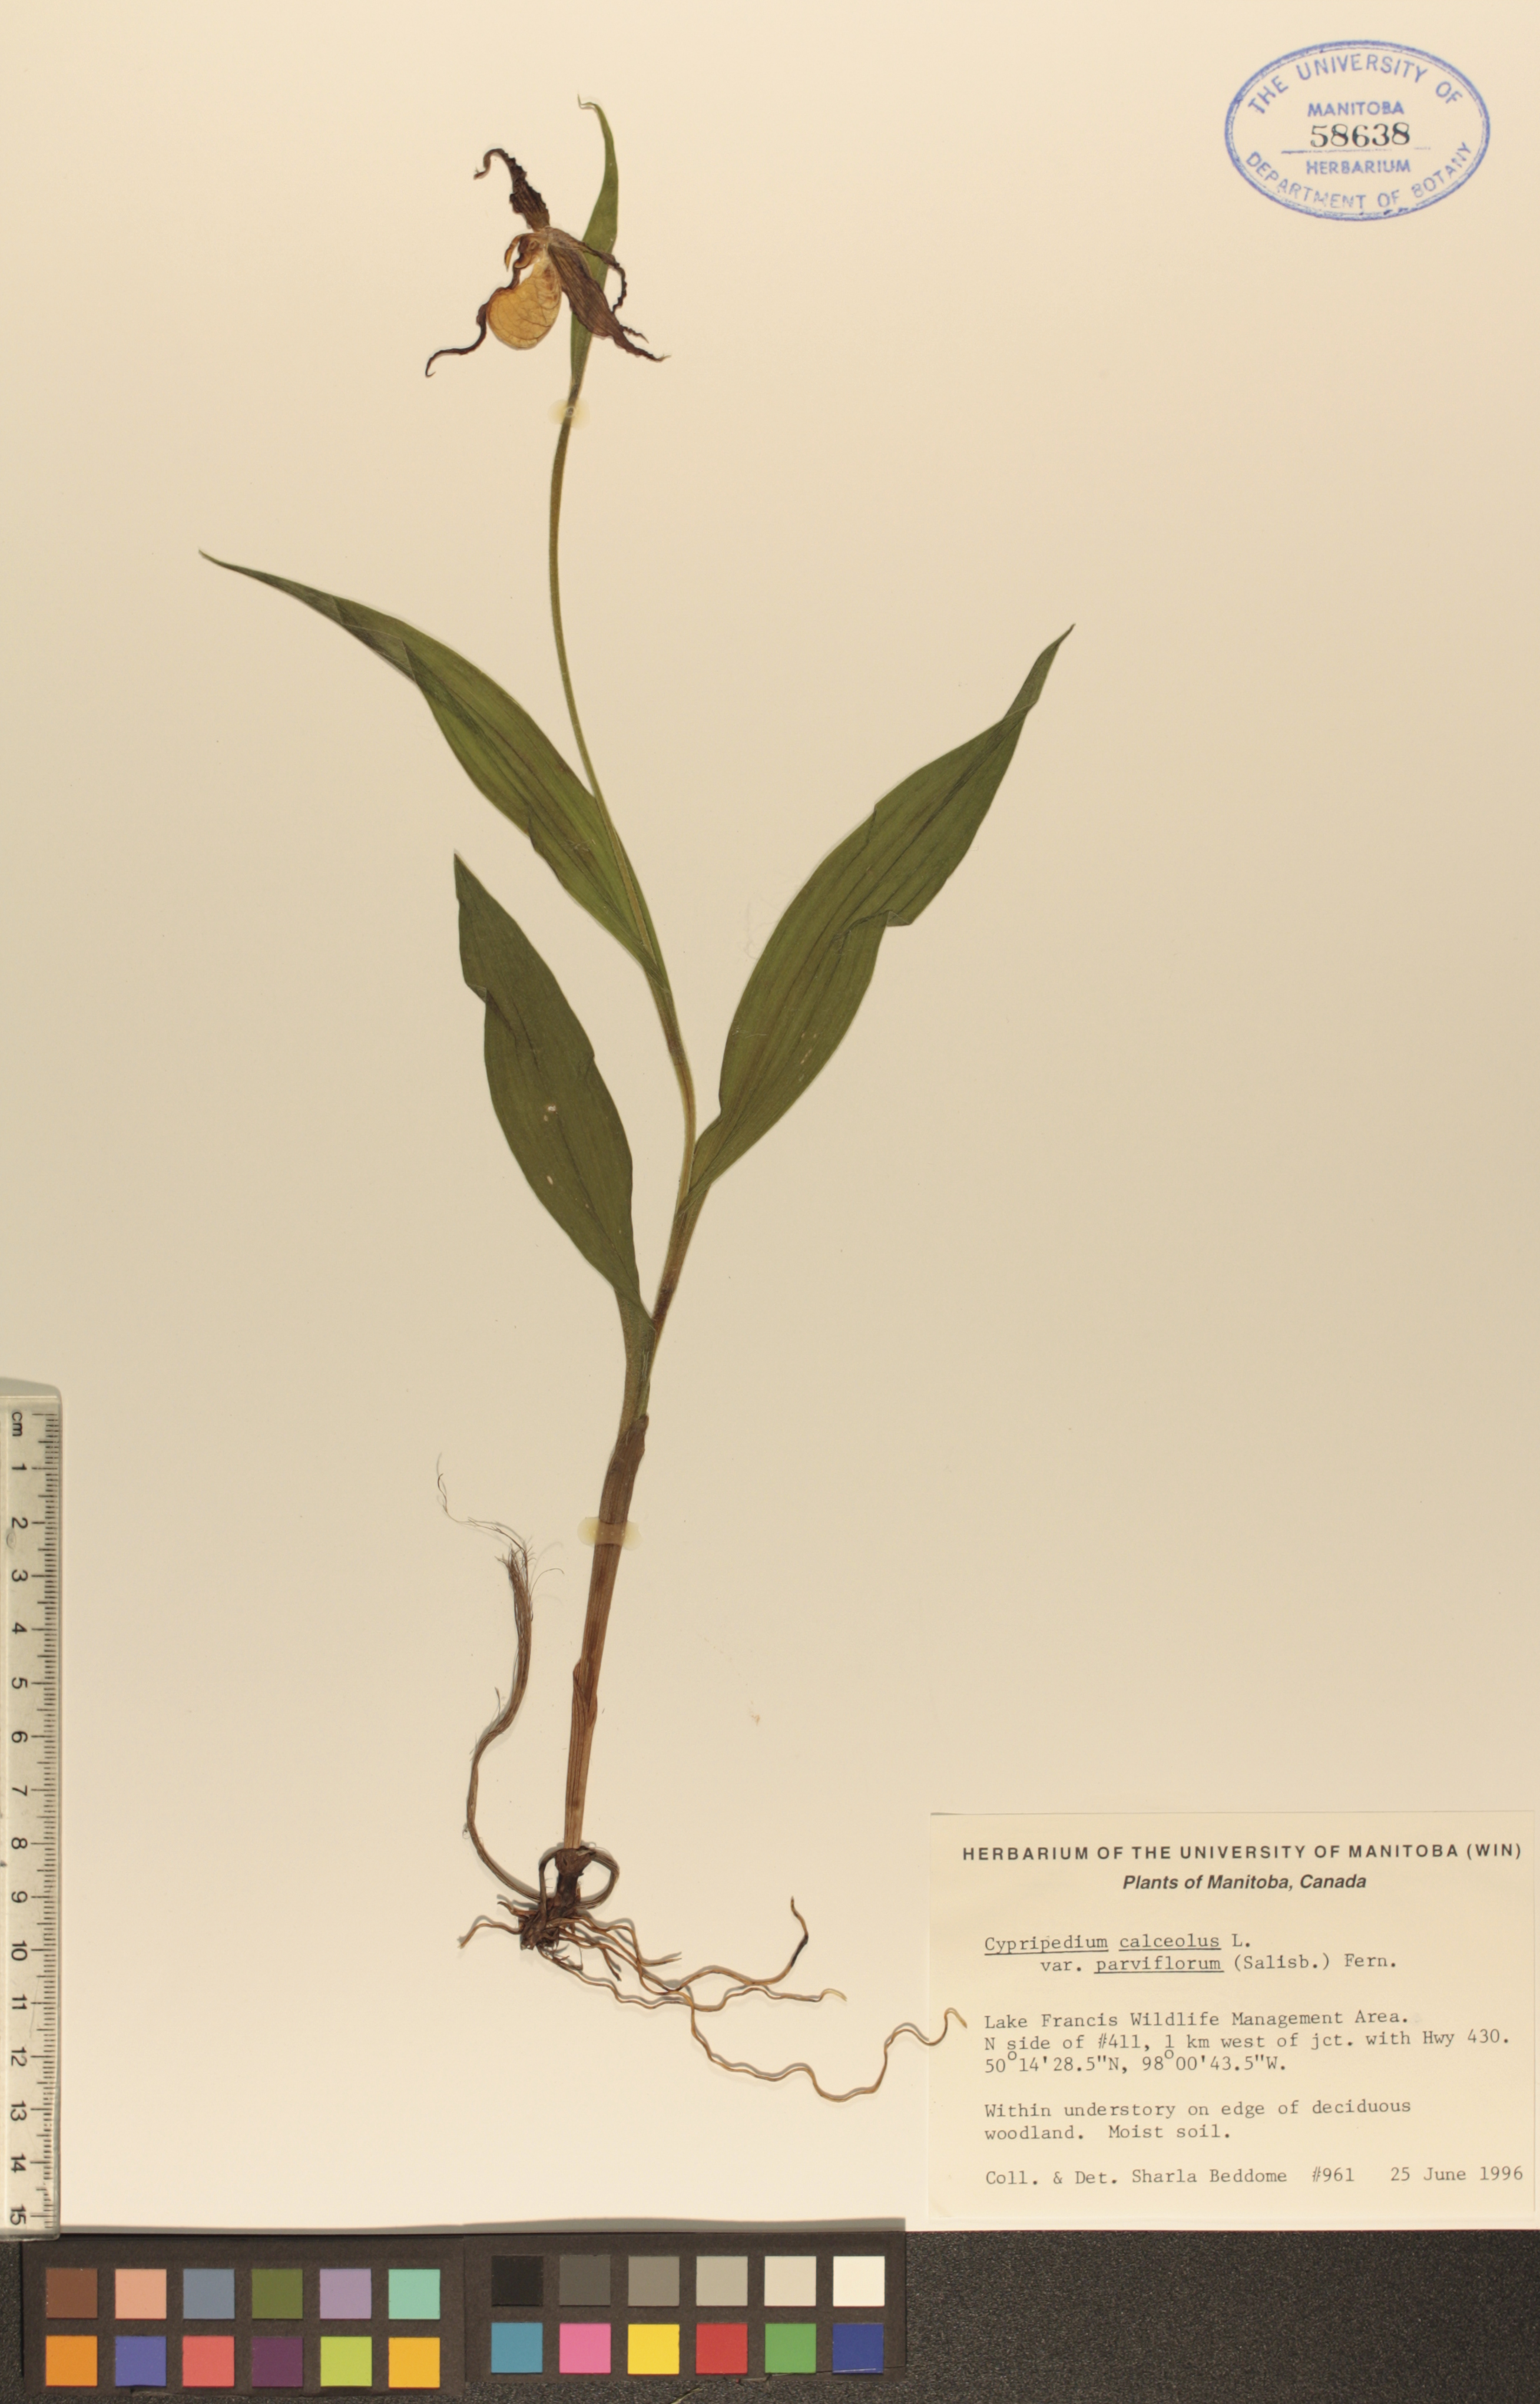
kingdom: Plantae
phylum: Tracheophyta
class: Liliopsida
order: Asparagales
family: Orchidaceae
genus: Cypripedium
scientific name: Cypripedium parviflorum
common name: American yellow lady's-slipper
